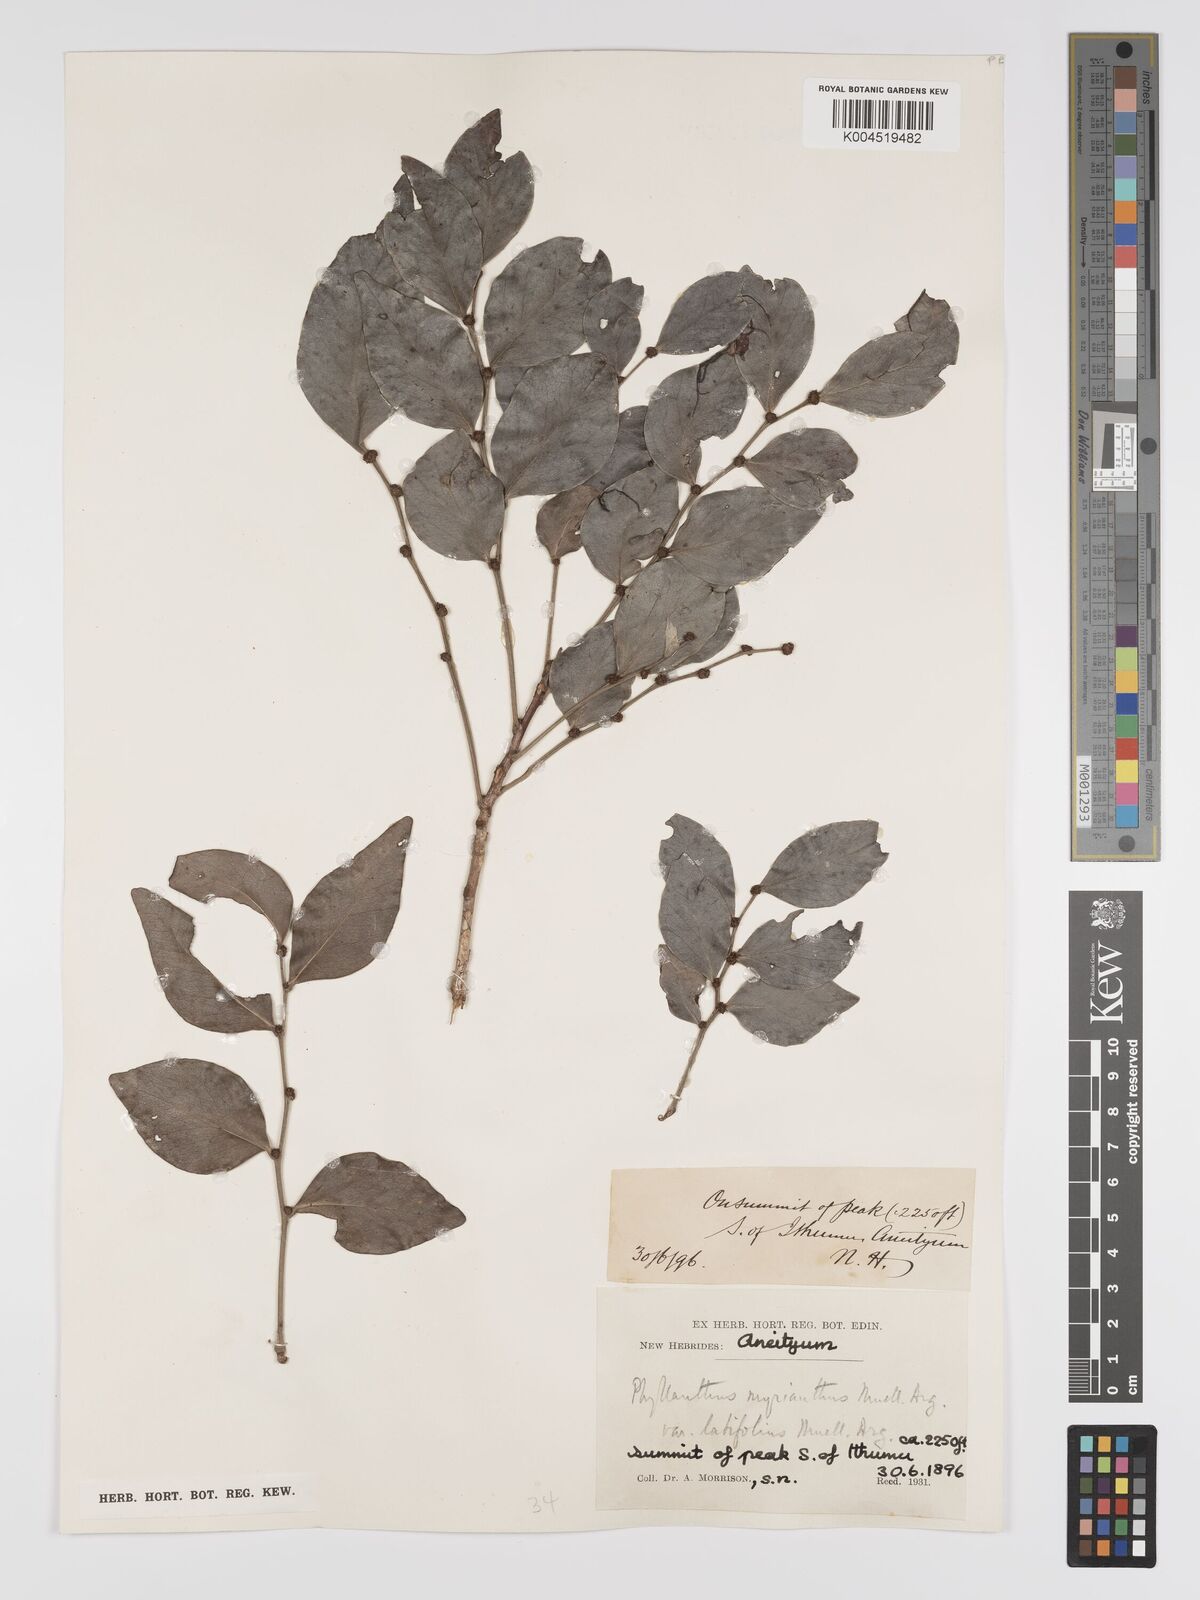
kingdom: Plantae
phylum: Tracheophyta
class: Magnoliopsida
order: Malpighiales
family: Phyllanthaceae
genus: Glochidion
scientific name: Glochidion myrianthum
